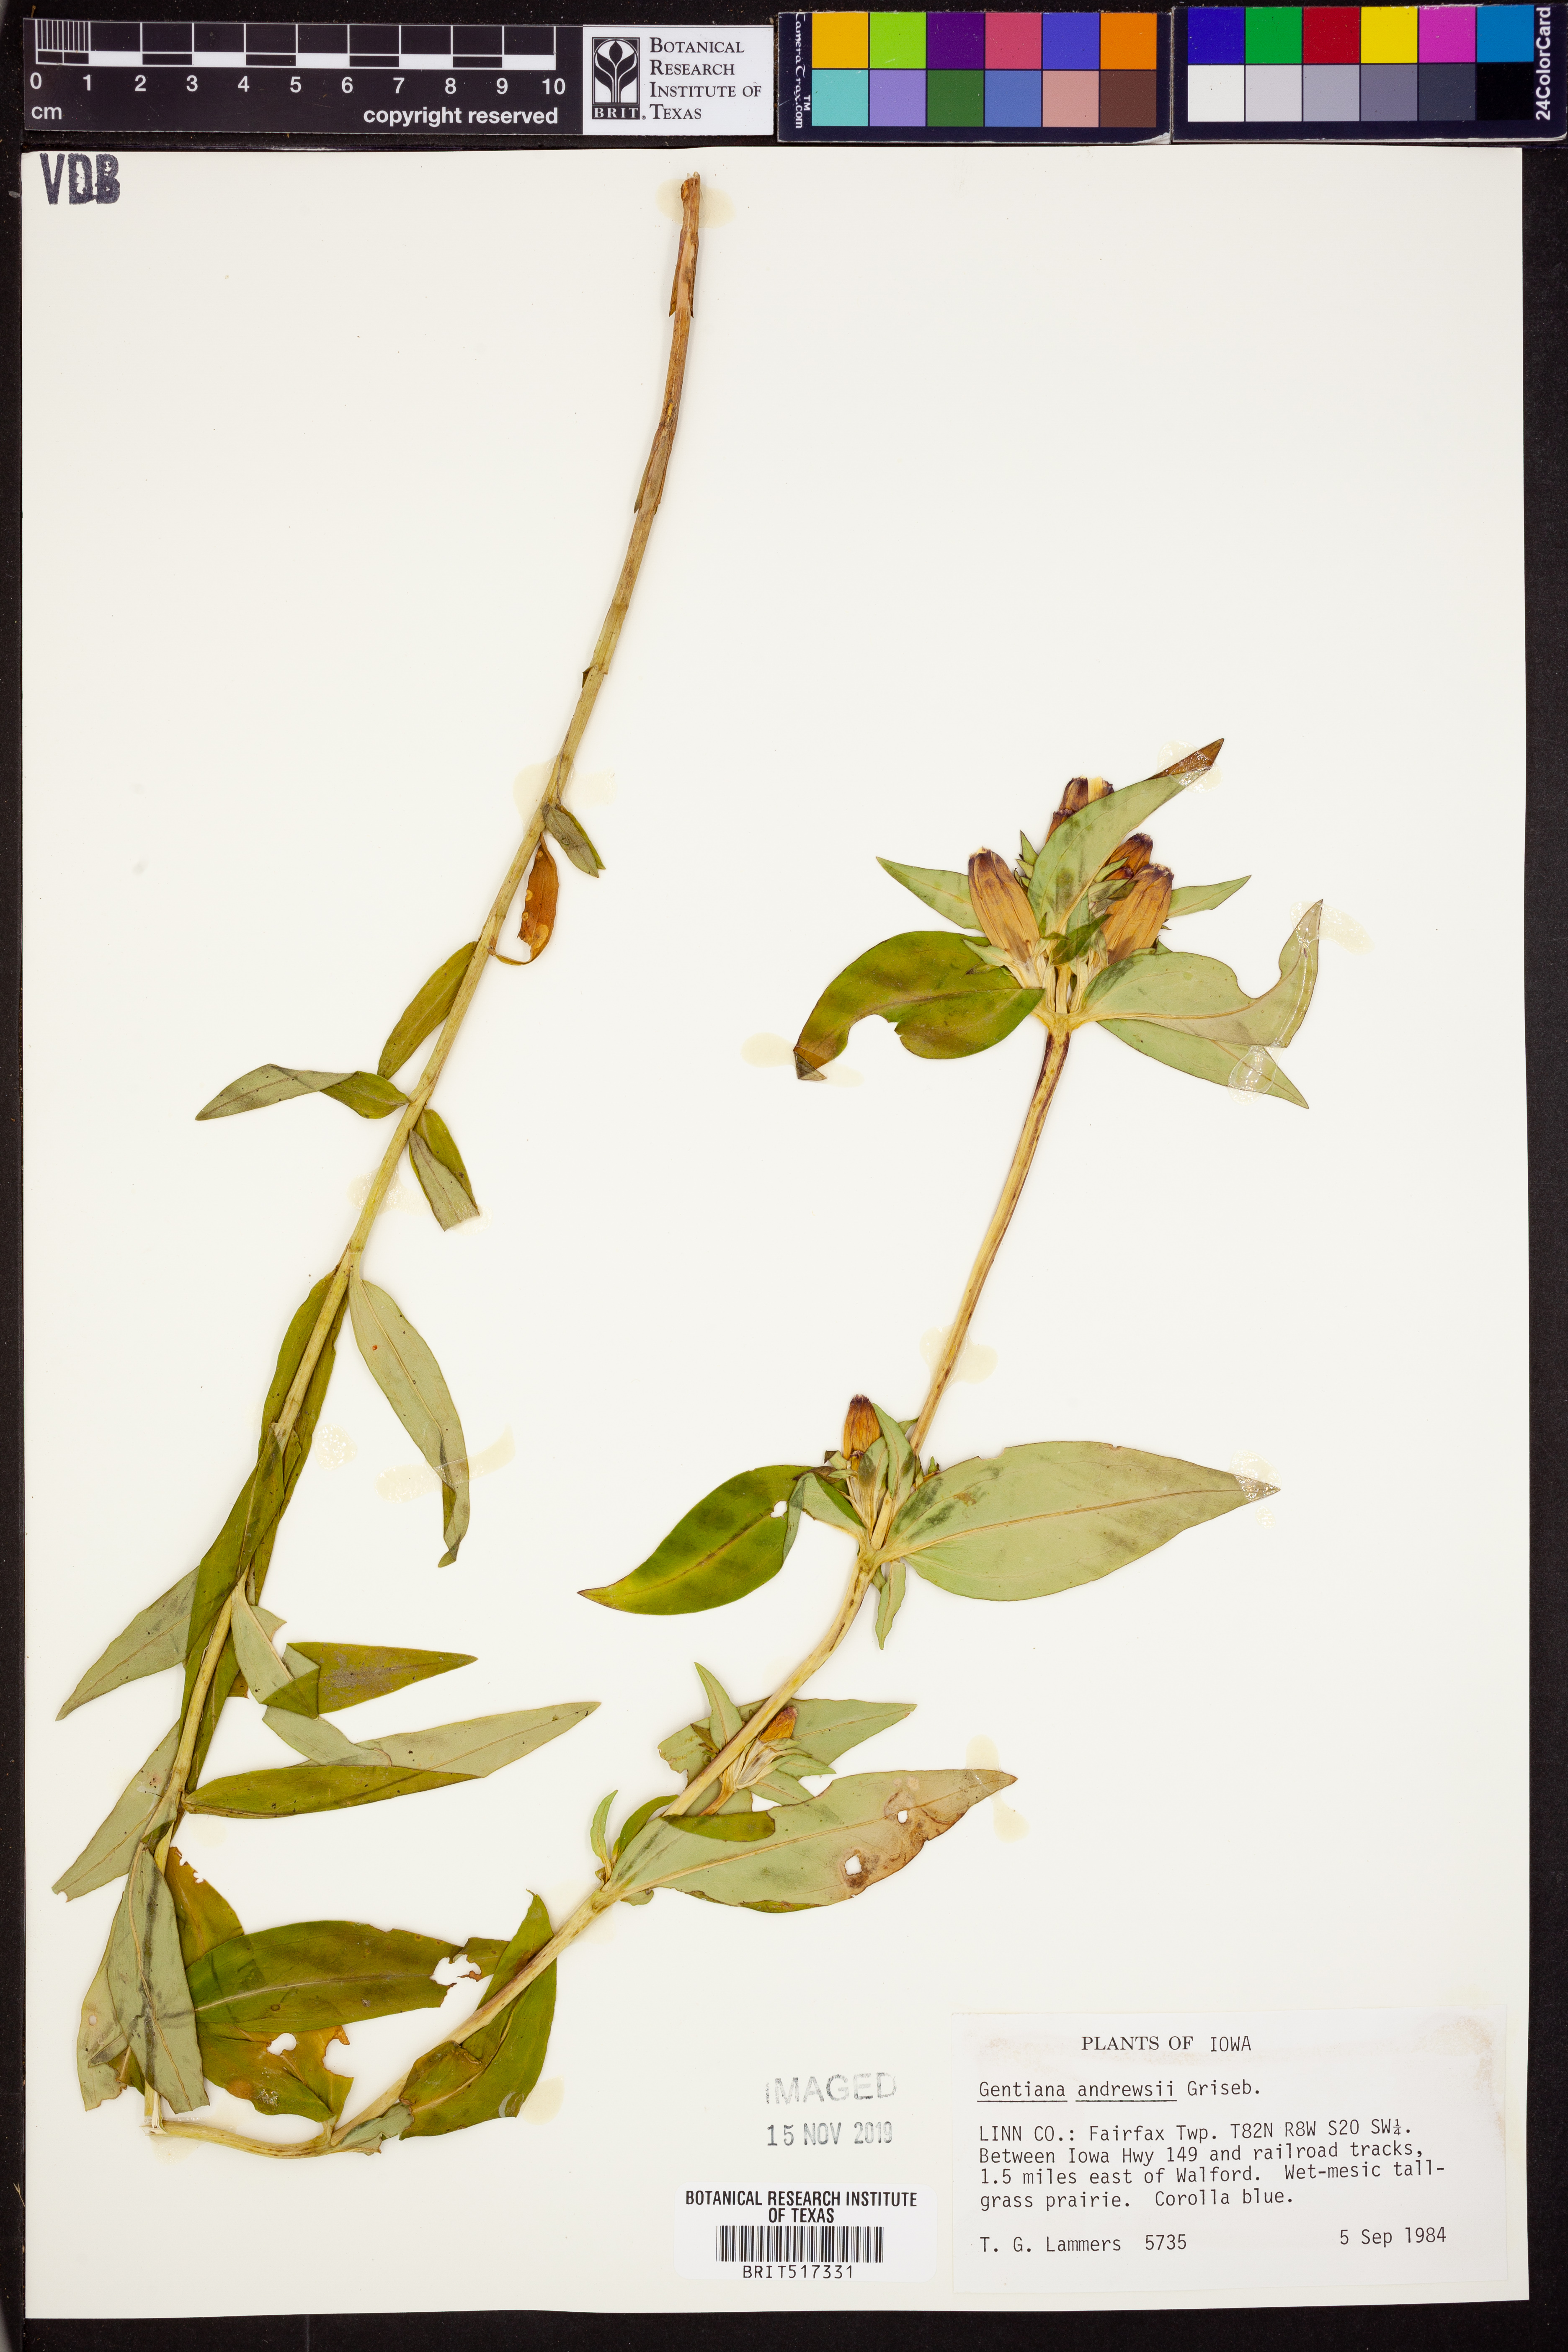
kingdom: Plantae
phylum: Tracheophyta
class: Magnoliopsida
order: Gentianales
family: Gentianaceae
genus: Gentiana
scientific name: Gentiana andrewsii
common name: Bottle gentian
